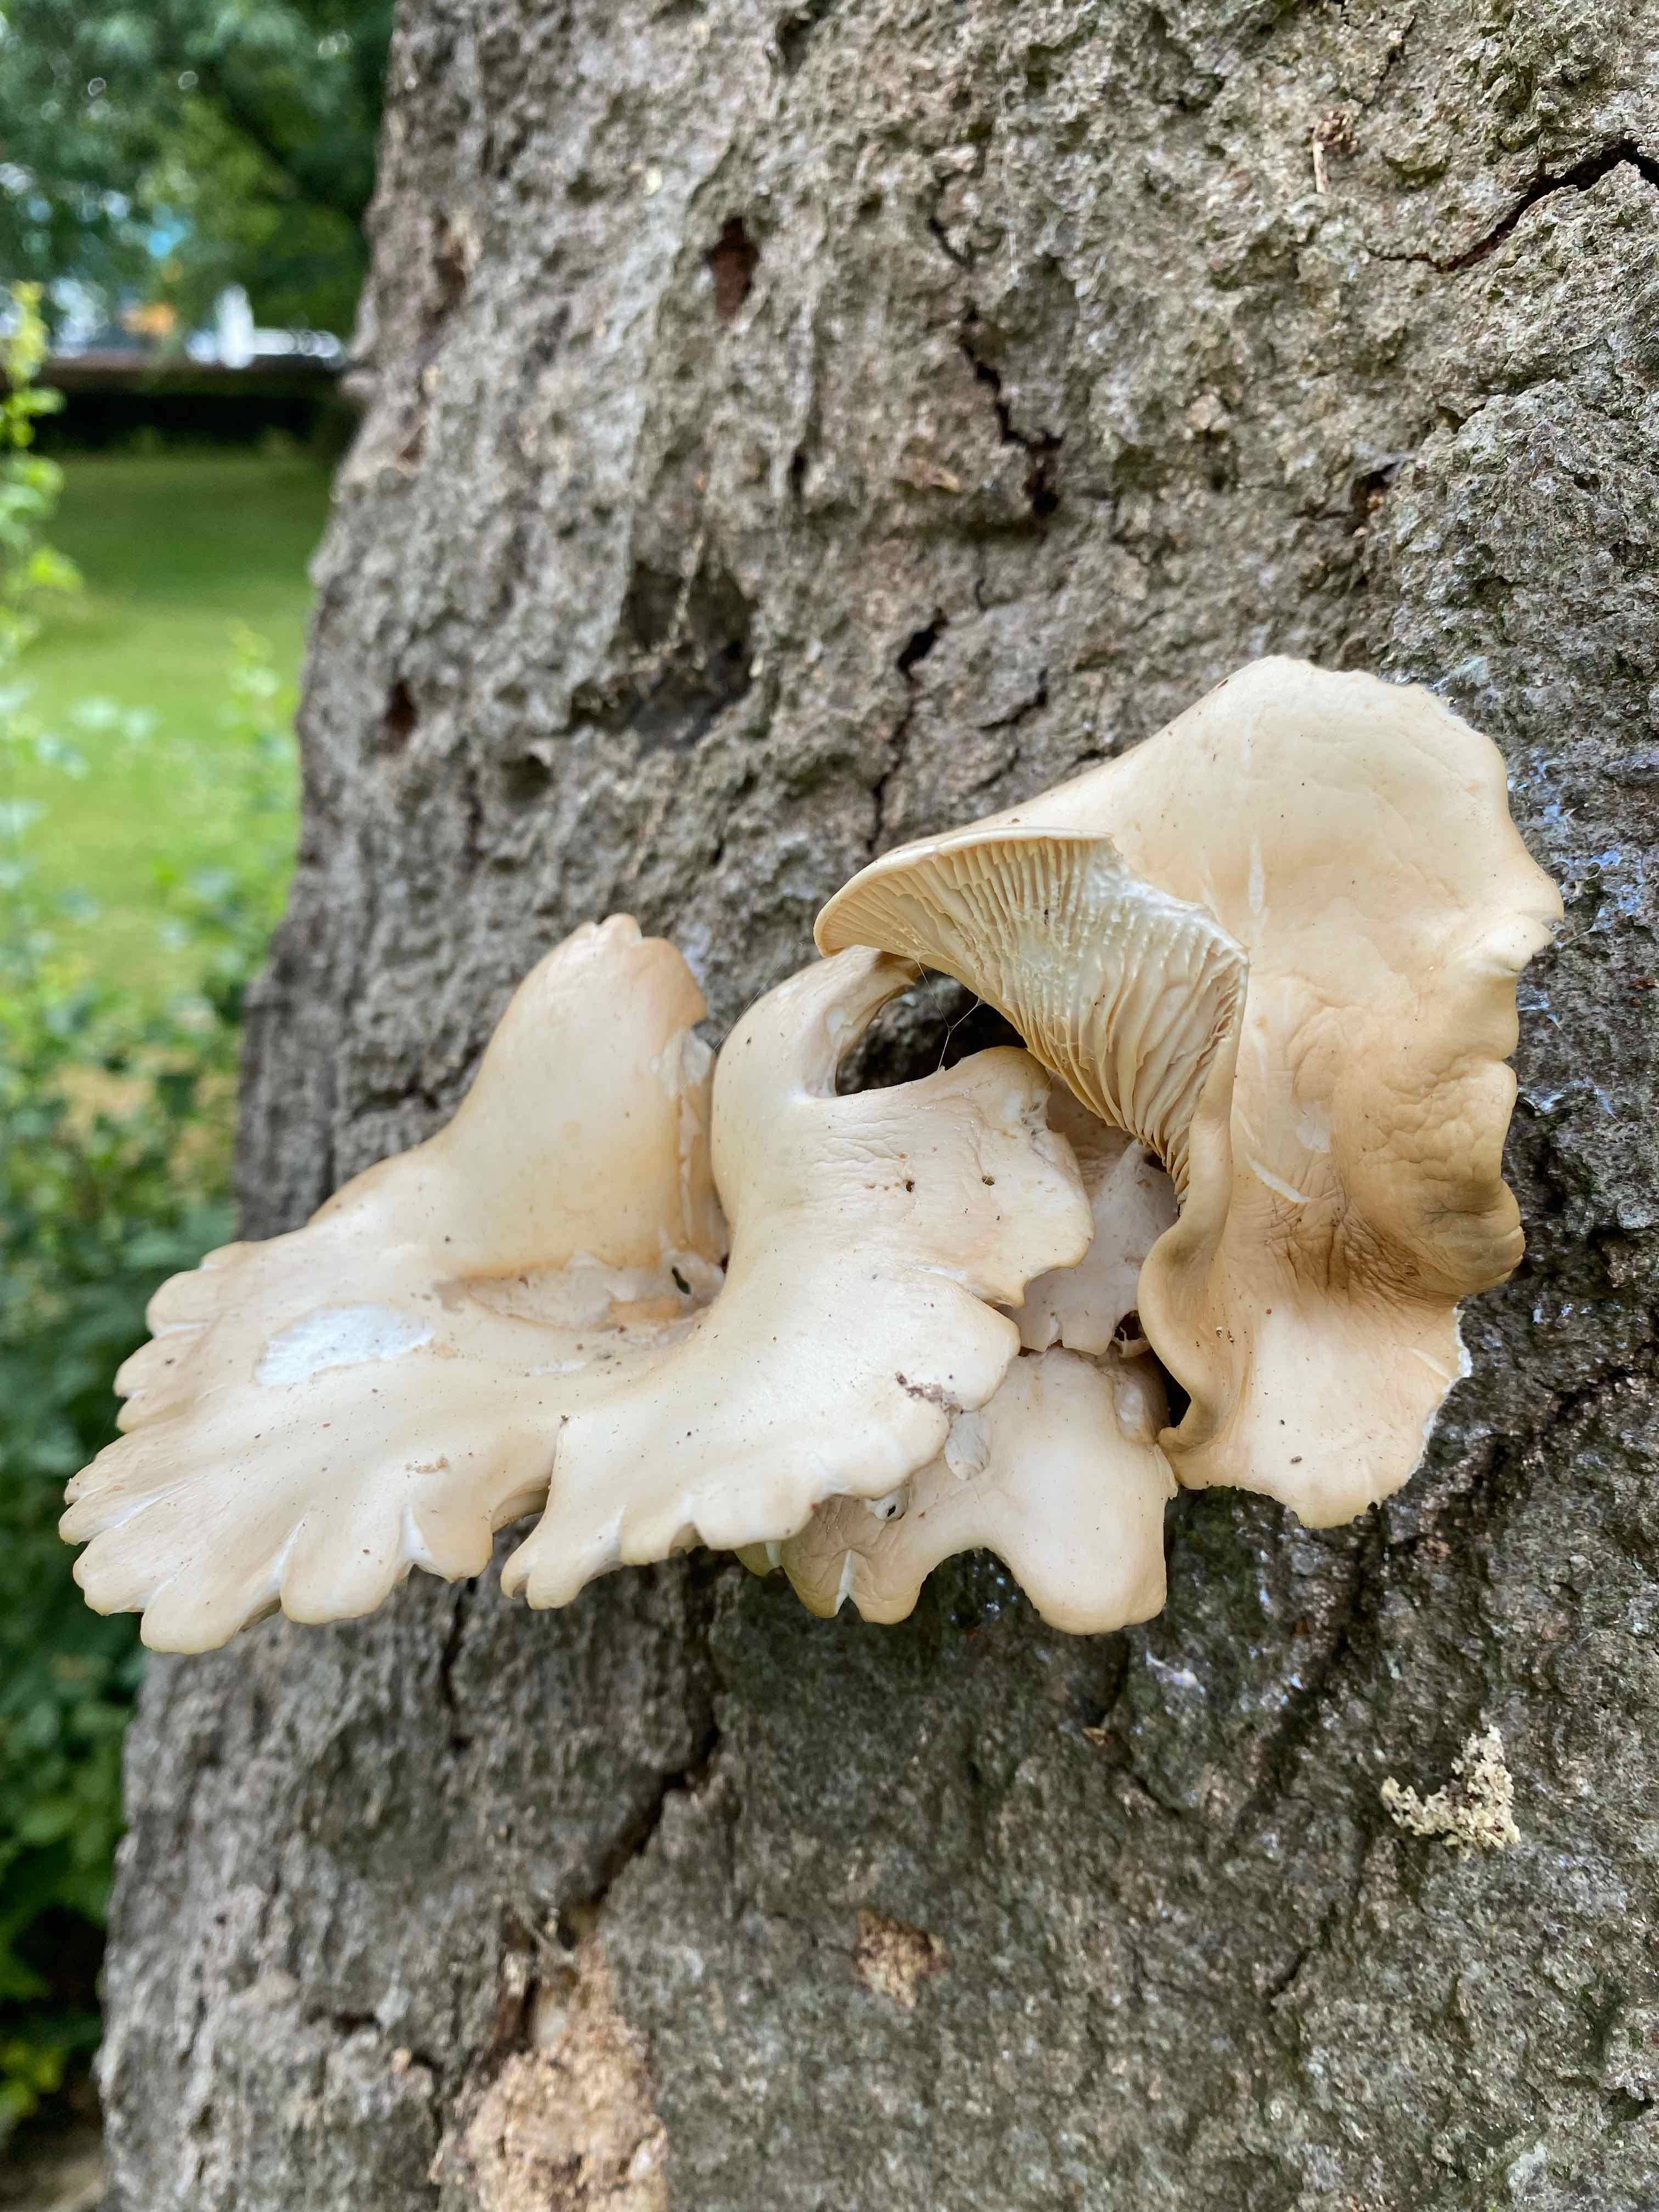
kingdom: Fungi
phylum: Basidiomycota
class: Agaricomycetes
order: Agaricales
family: Pleurotaceae
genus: Pleurotus
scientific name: Pleurotus pulmonarius
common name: sommer-østershat
